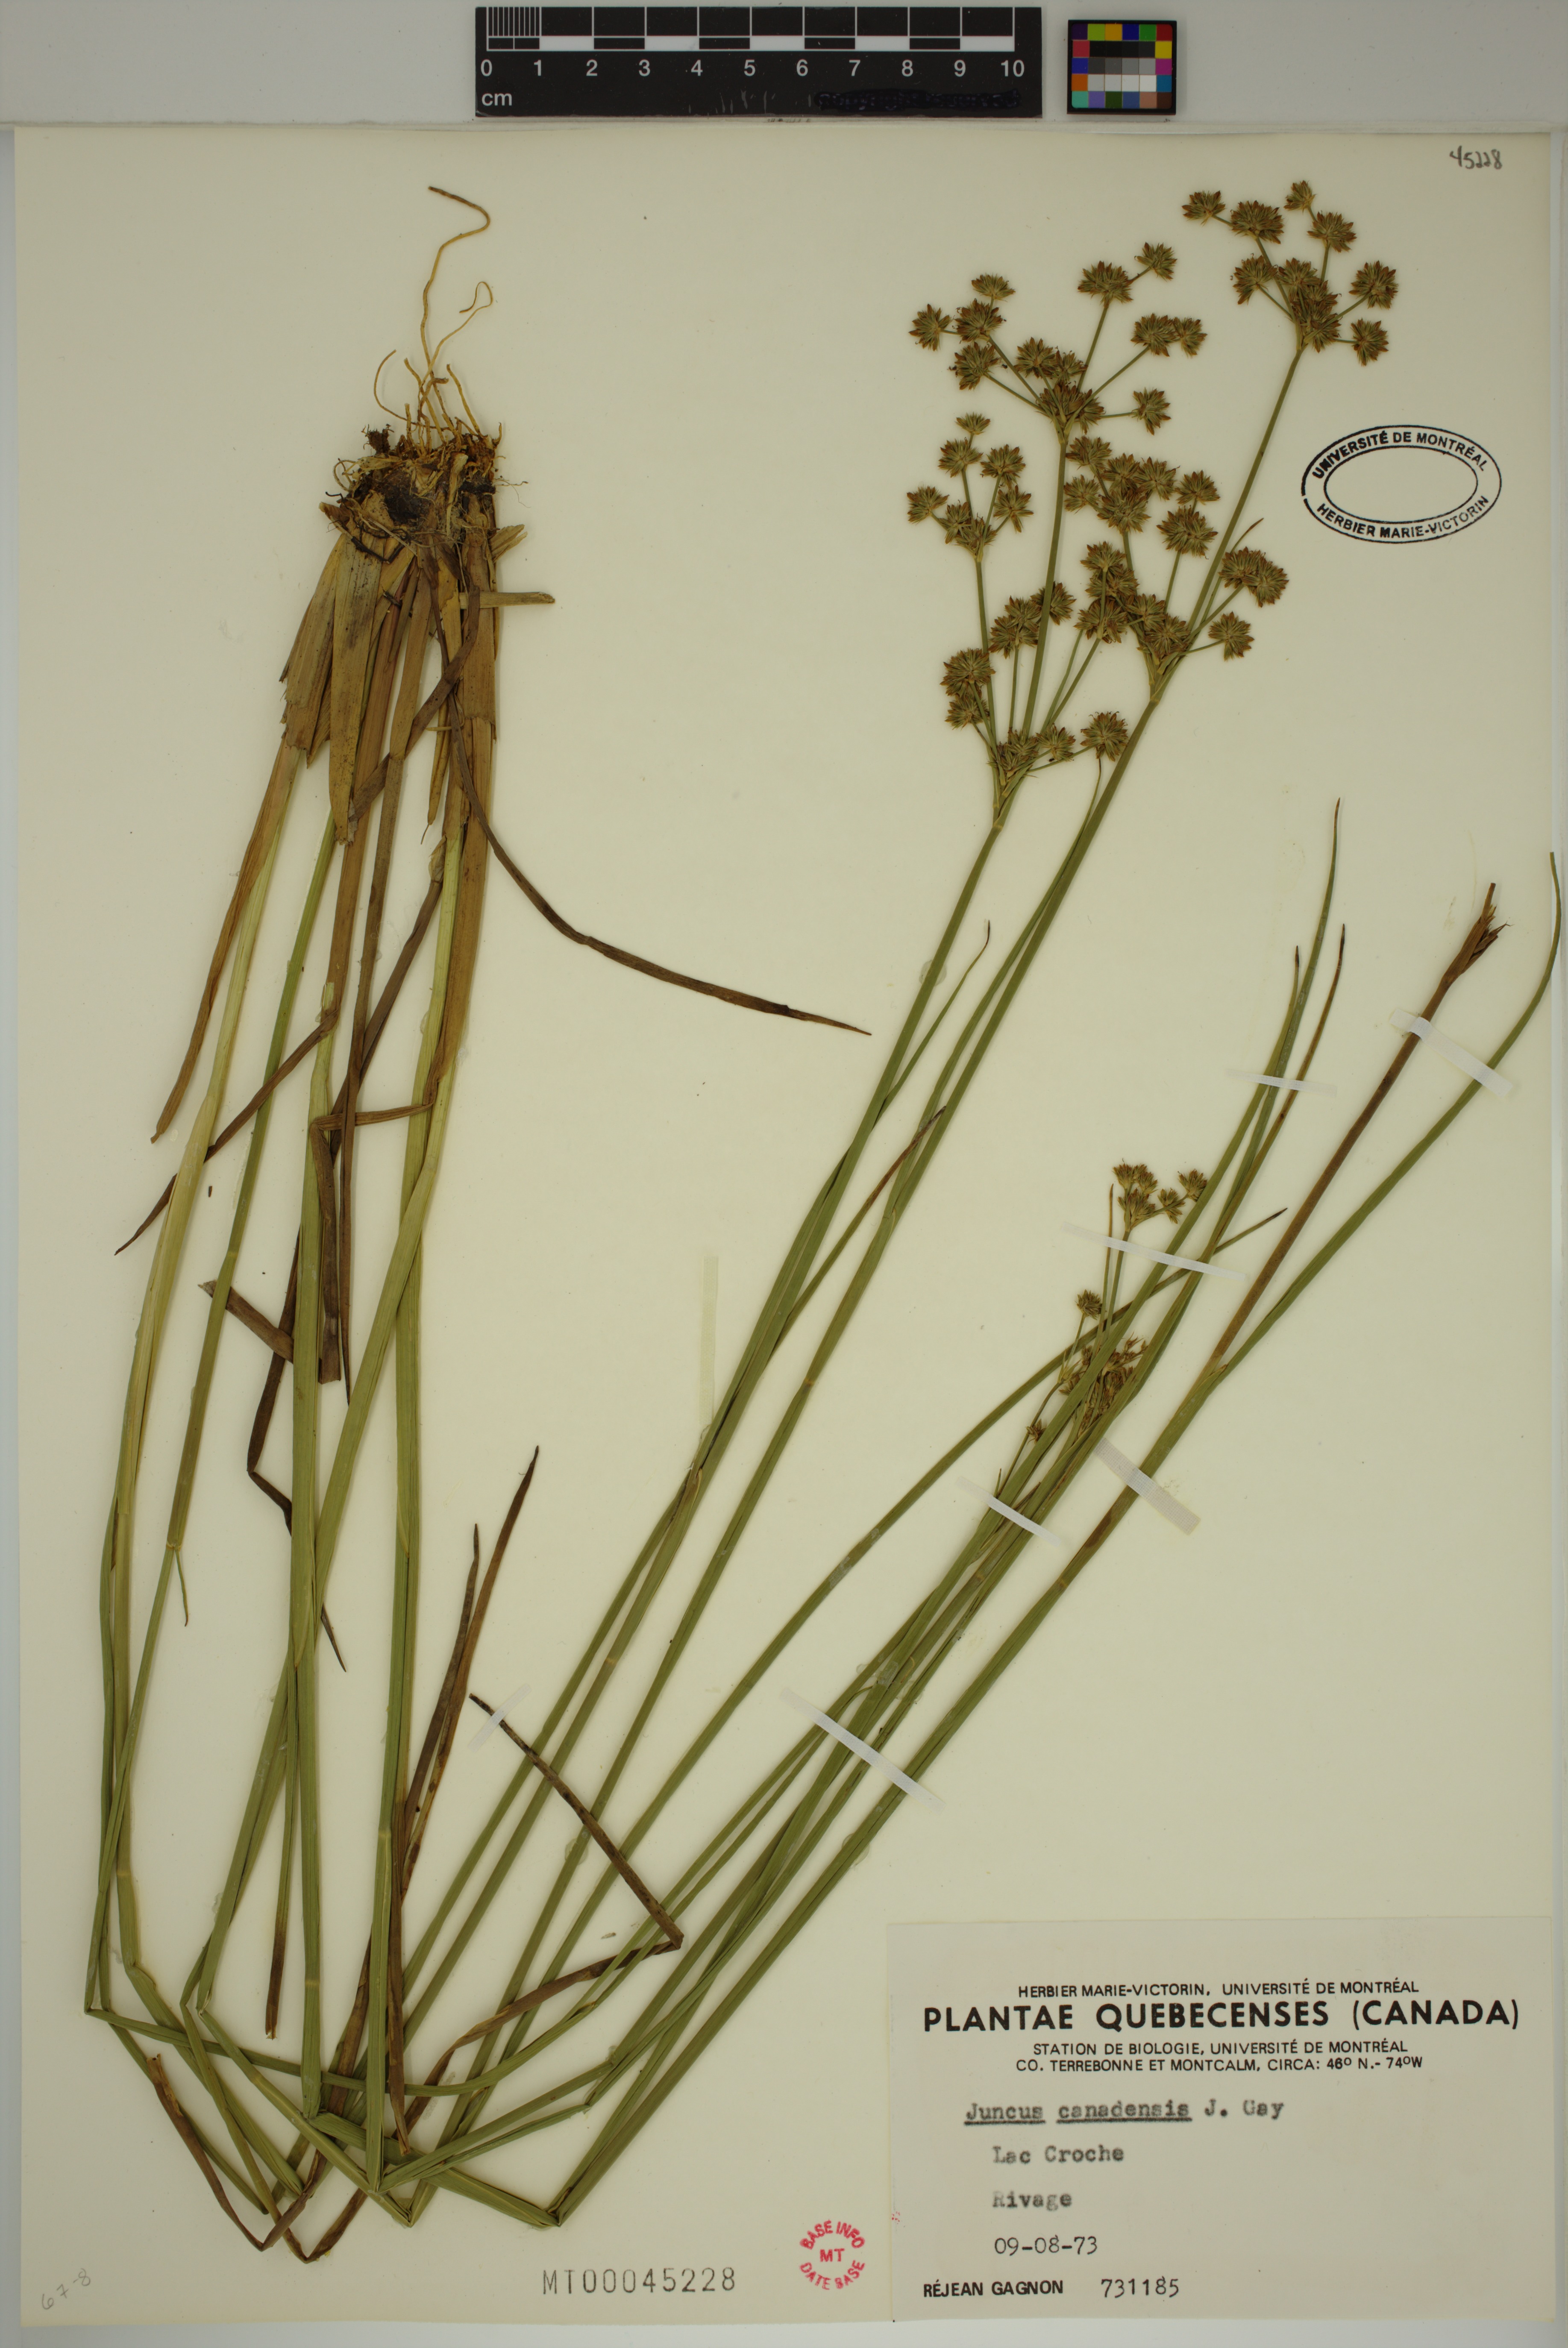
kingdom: Plantae
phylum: Tracheophyta
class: Liliopsida
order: Poales
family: Juncaceae
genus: Juncus
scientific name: Juncus canadensis
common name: Canada rush
